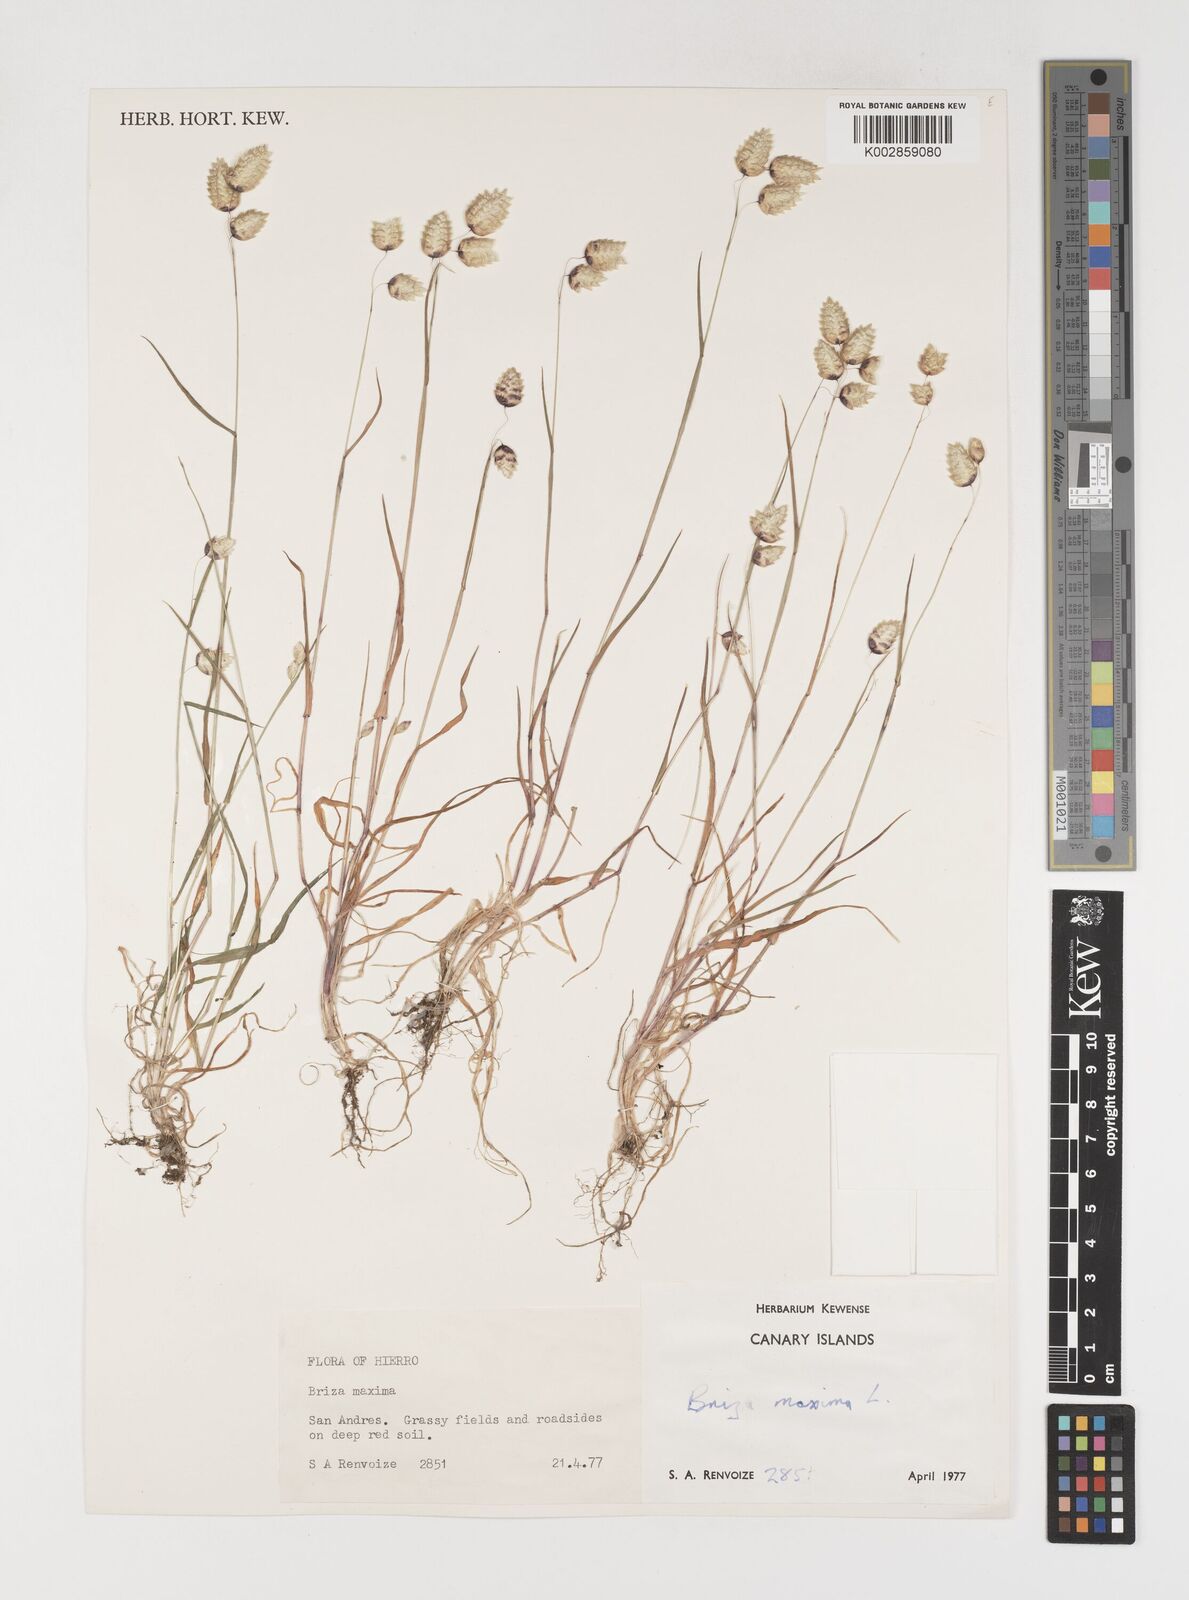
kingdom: Plantae
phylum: Tracheophyta
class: Liliopsida
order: Poales
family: Poaceae
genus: Briza
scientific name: Briza maxima
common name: Big quakinggrass
